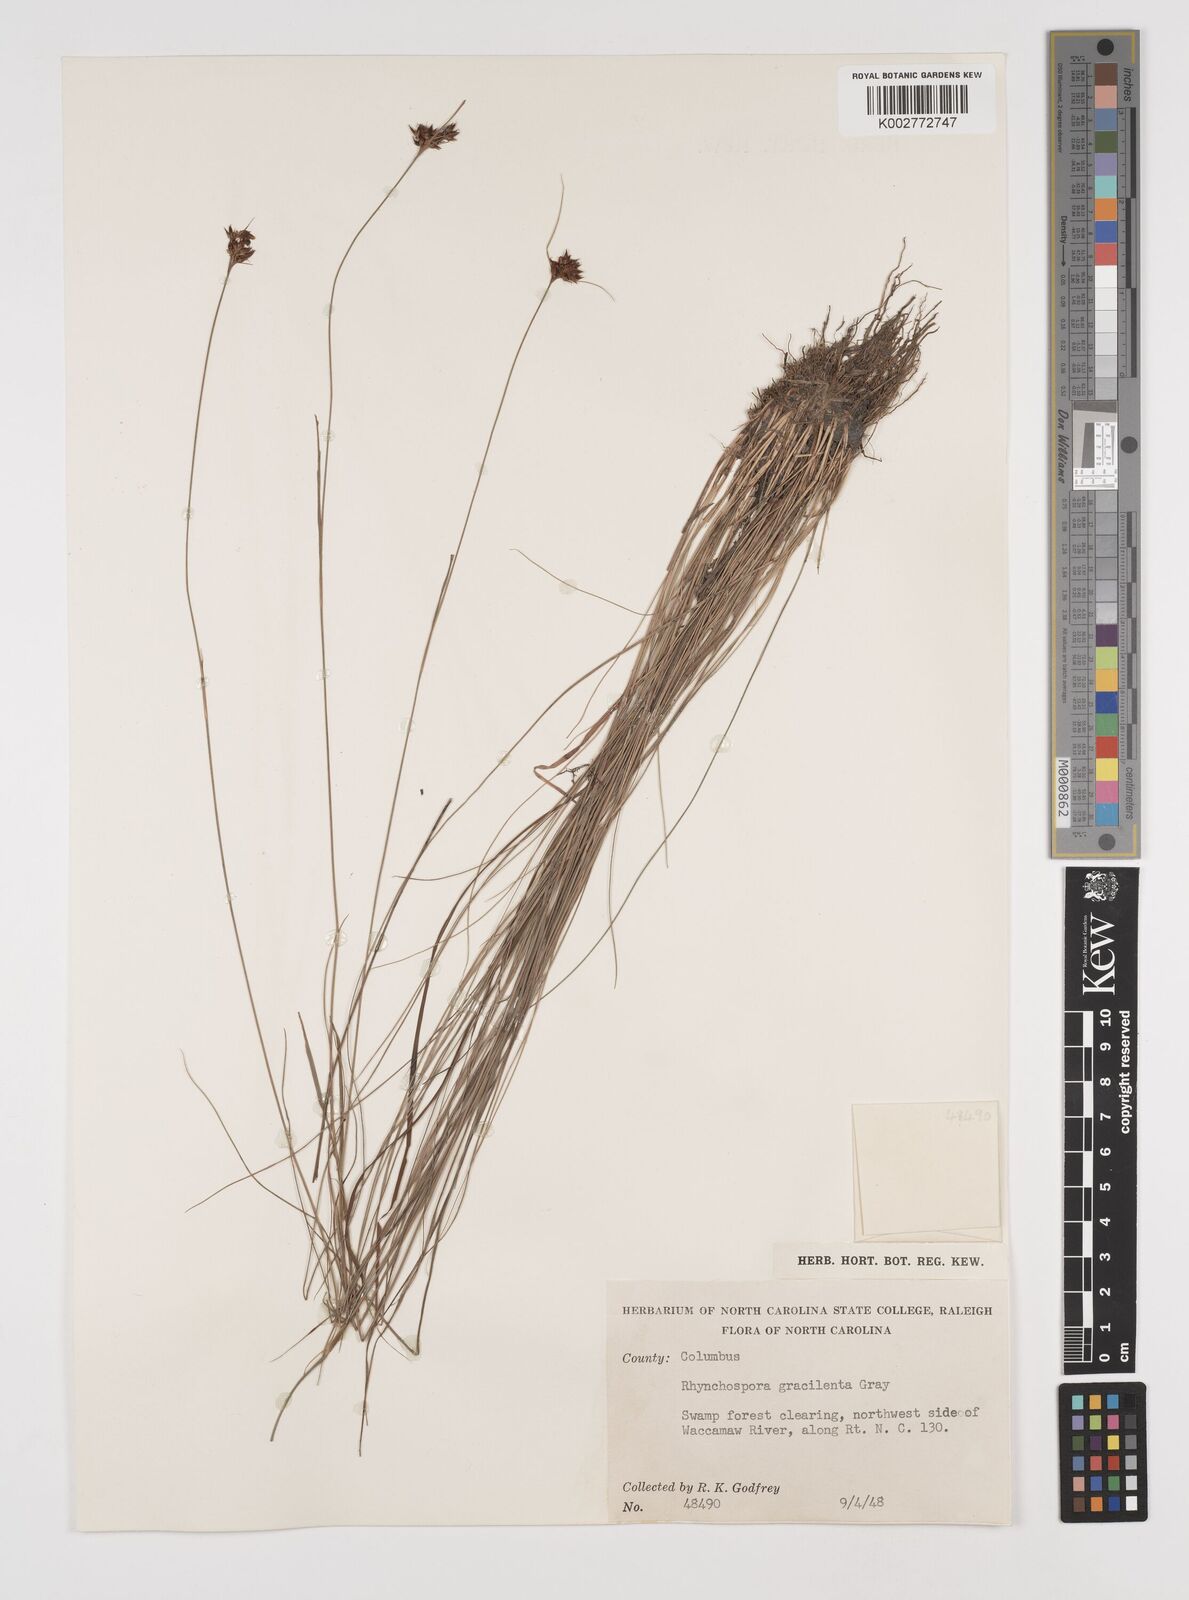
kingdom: Plantae
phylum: Tracheophyta
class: Liliopsida
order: Poales
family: Cyperaceae
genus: Rhynchospora
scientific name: Rhynchospora gracilenta
